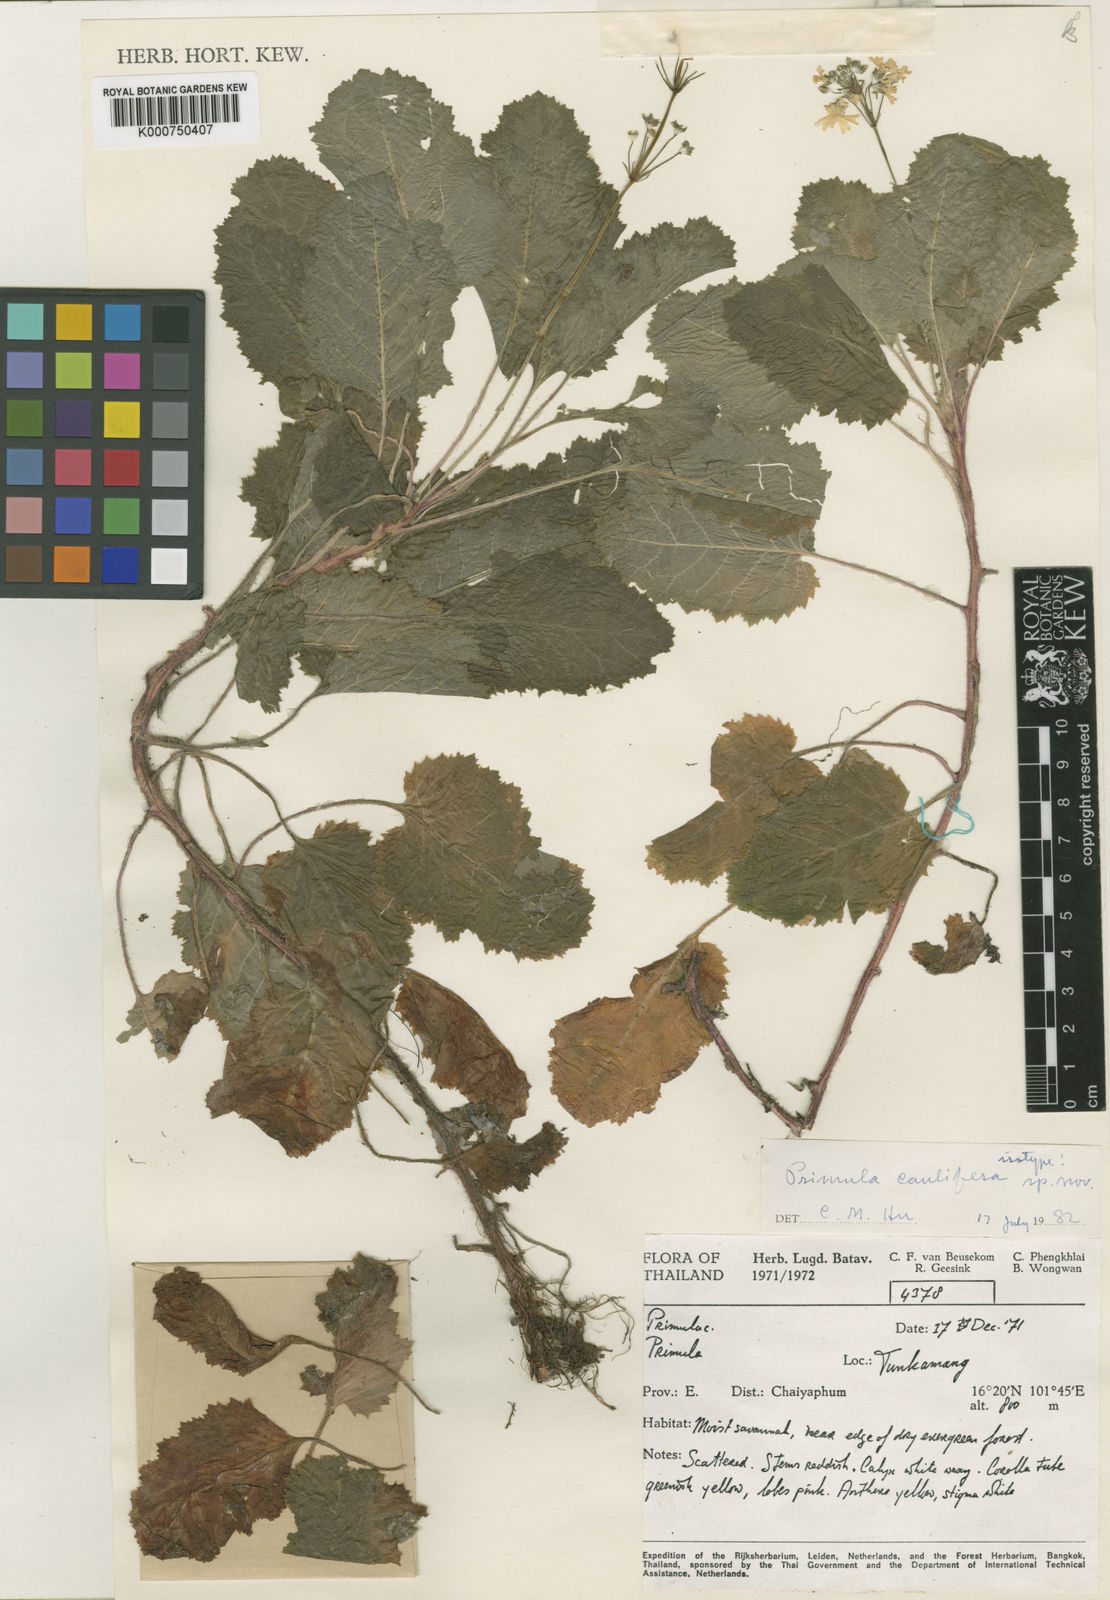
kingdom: Plantae
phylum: Tracheophyta
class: Magnoliopsida
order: Ericales
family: Primulaceae
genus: Primula
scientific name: Primula caulifera
